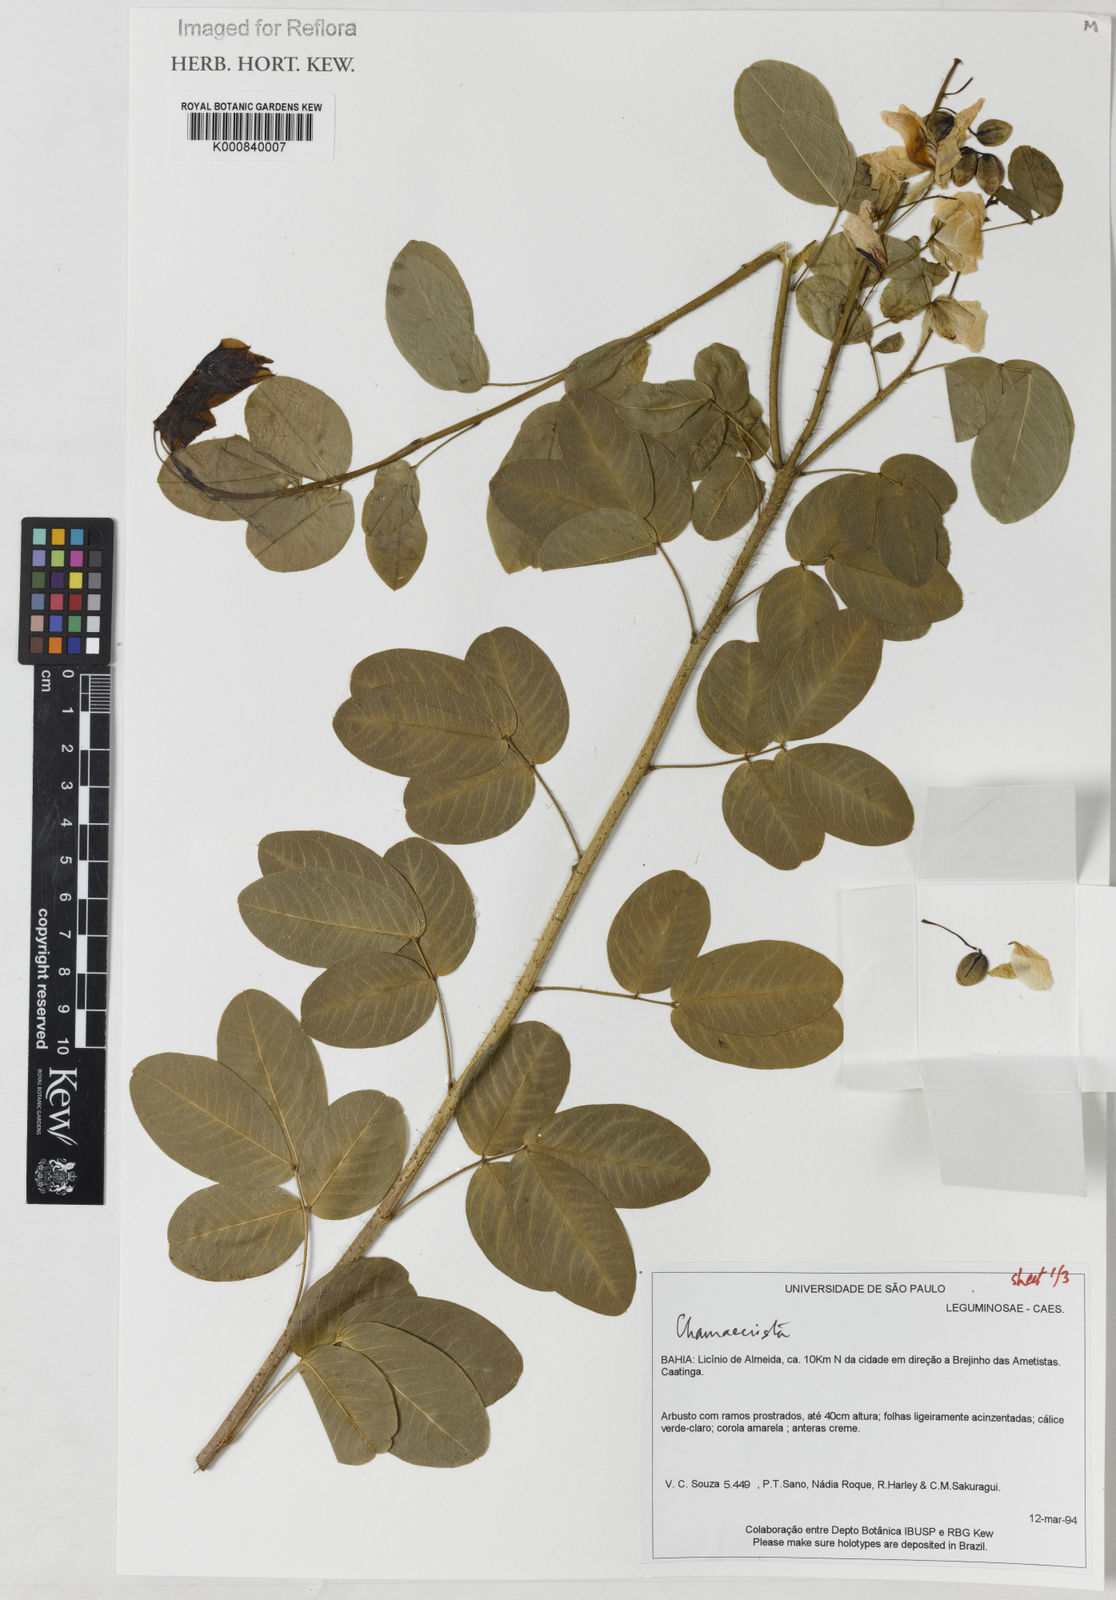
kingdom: Plantae
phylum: Tracheophyta
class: Magnoliopsida
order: Fabales
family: Fabaceae
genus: Chamaecrista
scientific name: Chamaecrista
